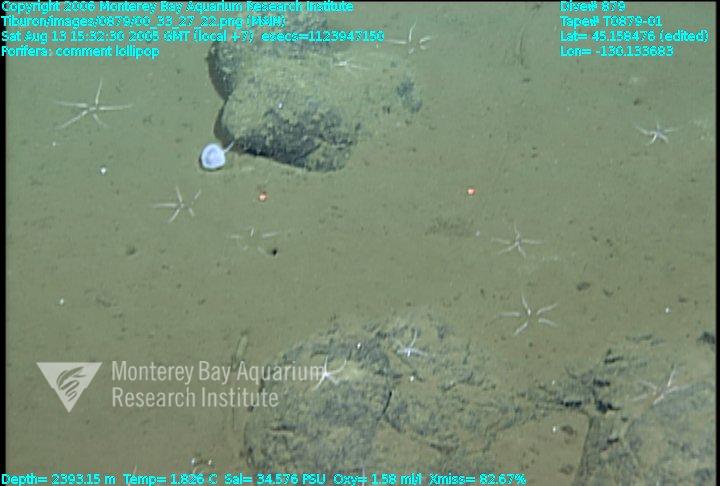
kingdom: Animalia
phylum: Porifera
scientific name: Porifera
